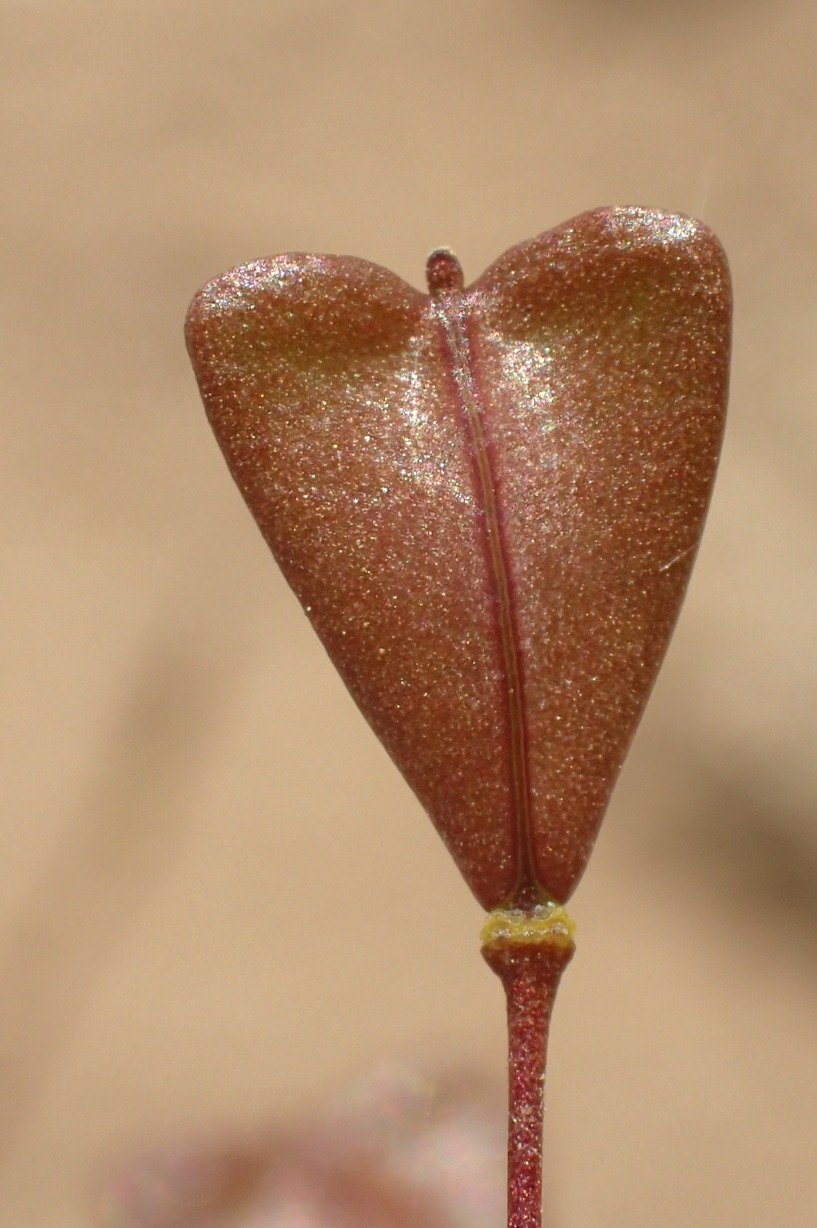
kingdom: Plantae
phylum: Tracheophyta
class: Magnoliopsida
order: Brassicales
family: Brassicaceae
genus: Capsella
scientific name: Capsella bursa-pastoris
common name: Hyrdetaske
